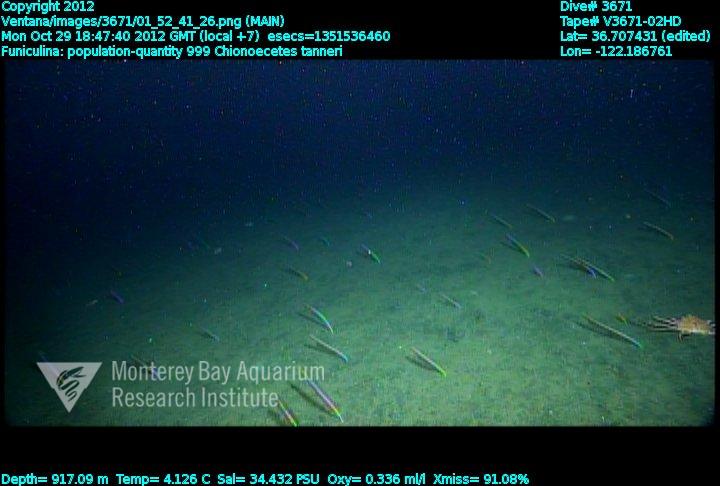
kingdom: Animalia
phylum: Cnidaria
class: Anthozoa
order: Scleralcyonacea
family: Funiculinidae
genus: Funiculina
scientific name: Funiculina
